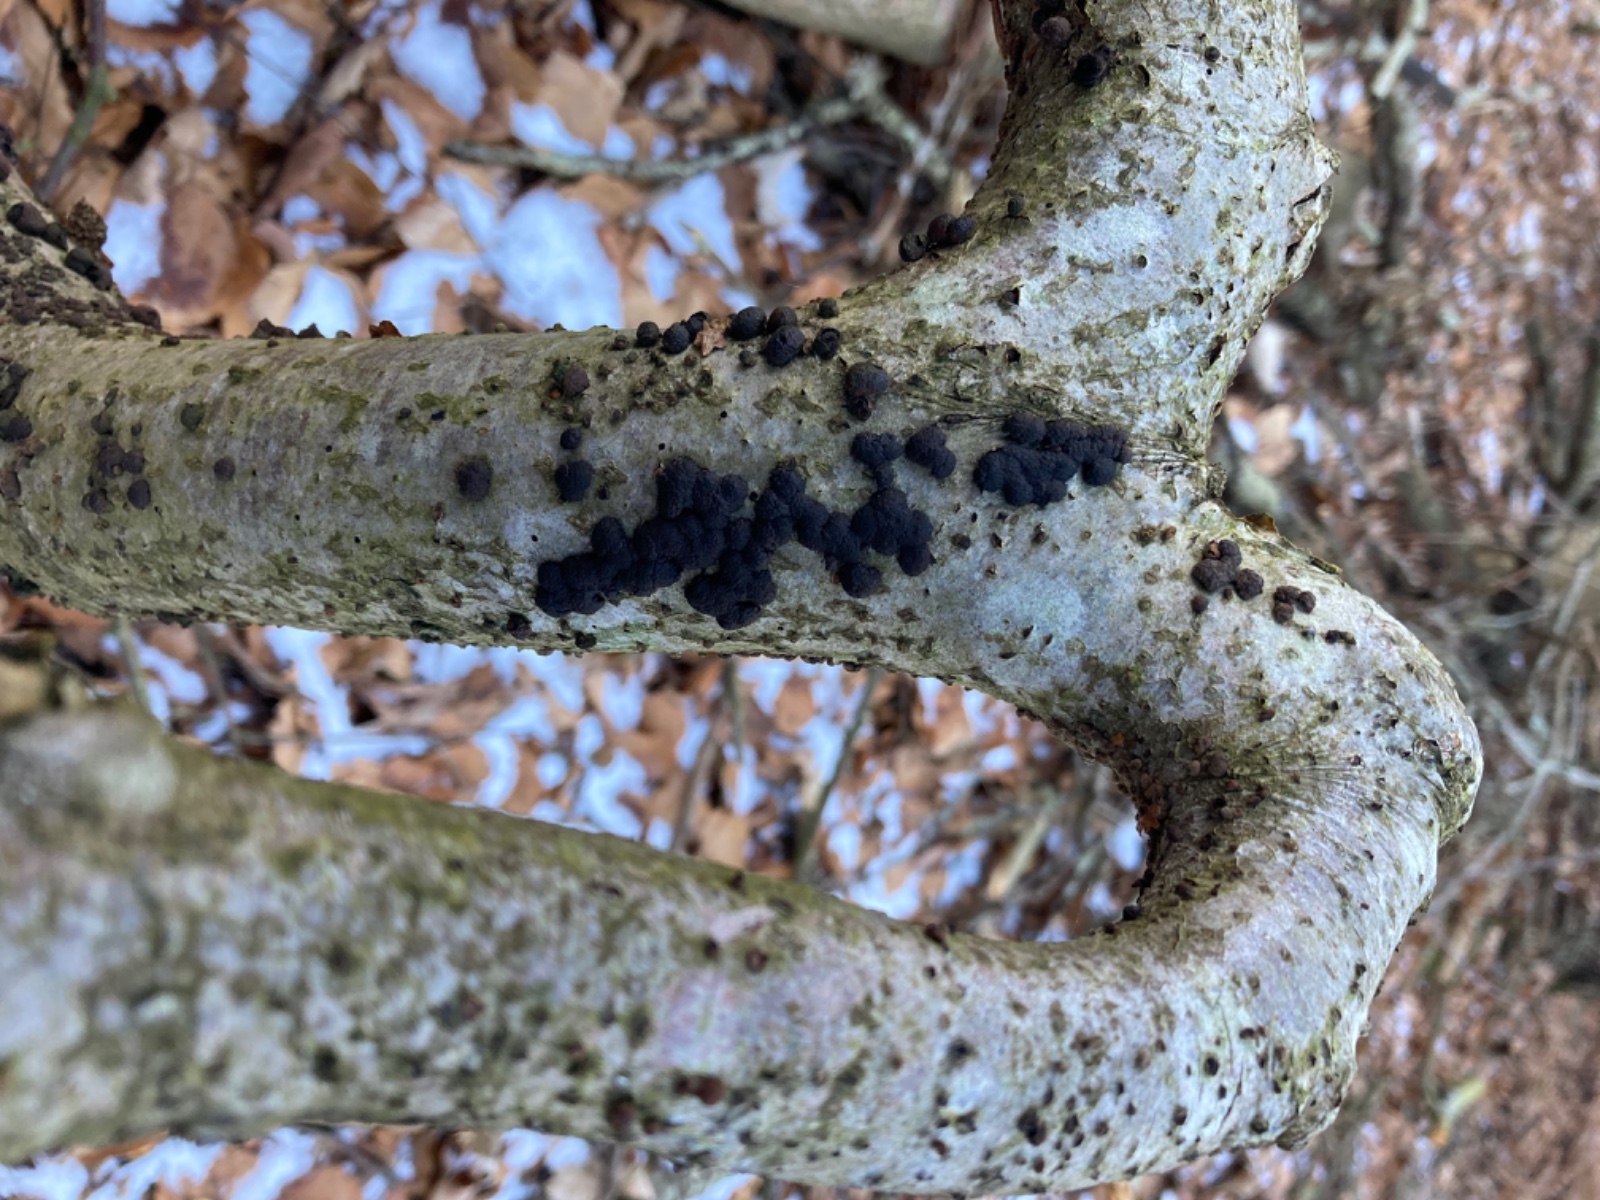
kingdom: Fungi
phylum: Ascomycota
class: Sordariomycetes
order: Xylariales
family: Hypoxylaceae
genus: Jackrogersella
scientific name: Jackrogersella multiformis
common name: foranderlig kulbær
